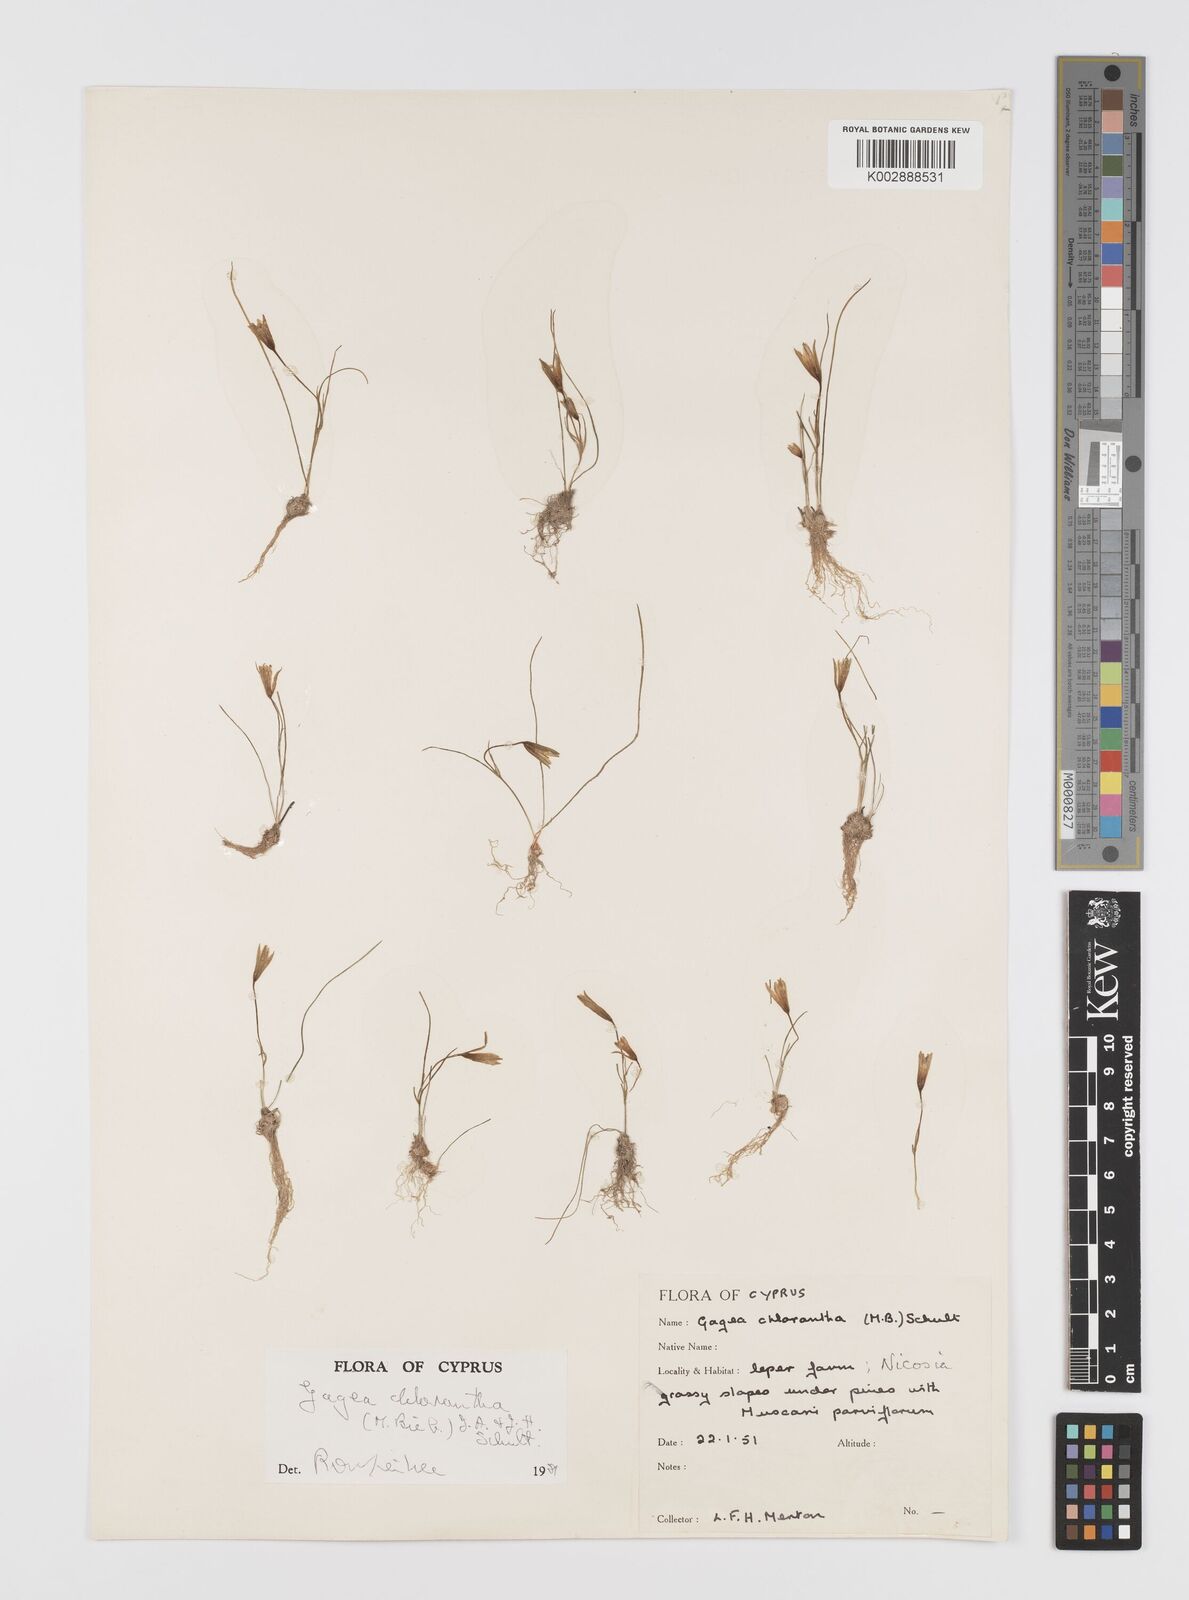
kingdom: Plantae
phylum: Tracheophyta
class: Liliopsida
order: Liliales
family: Liliaceae
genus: Gagea
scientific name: Gagea chlorantha
